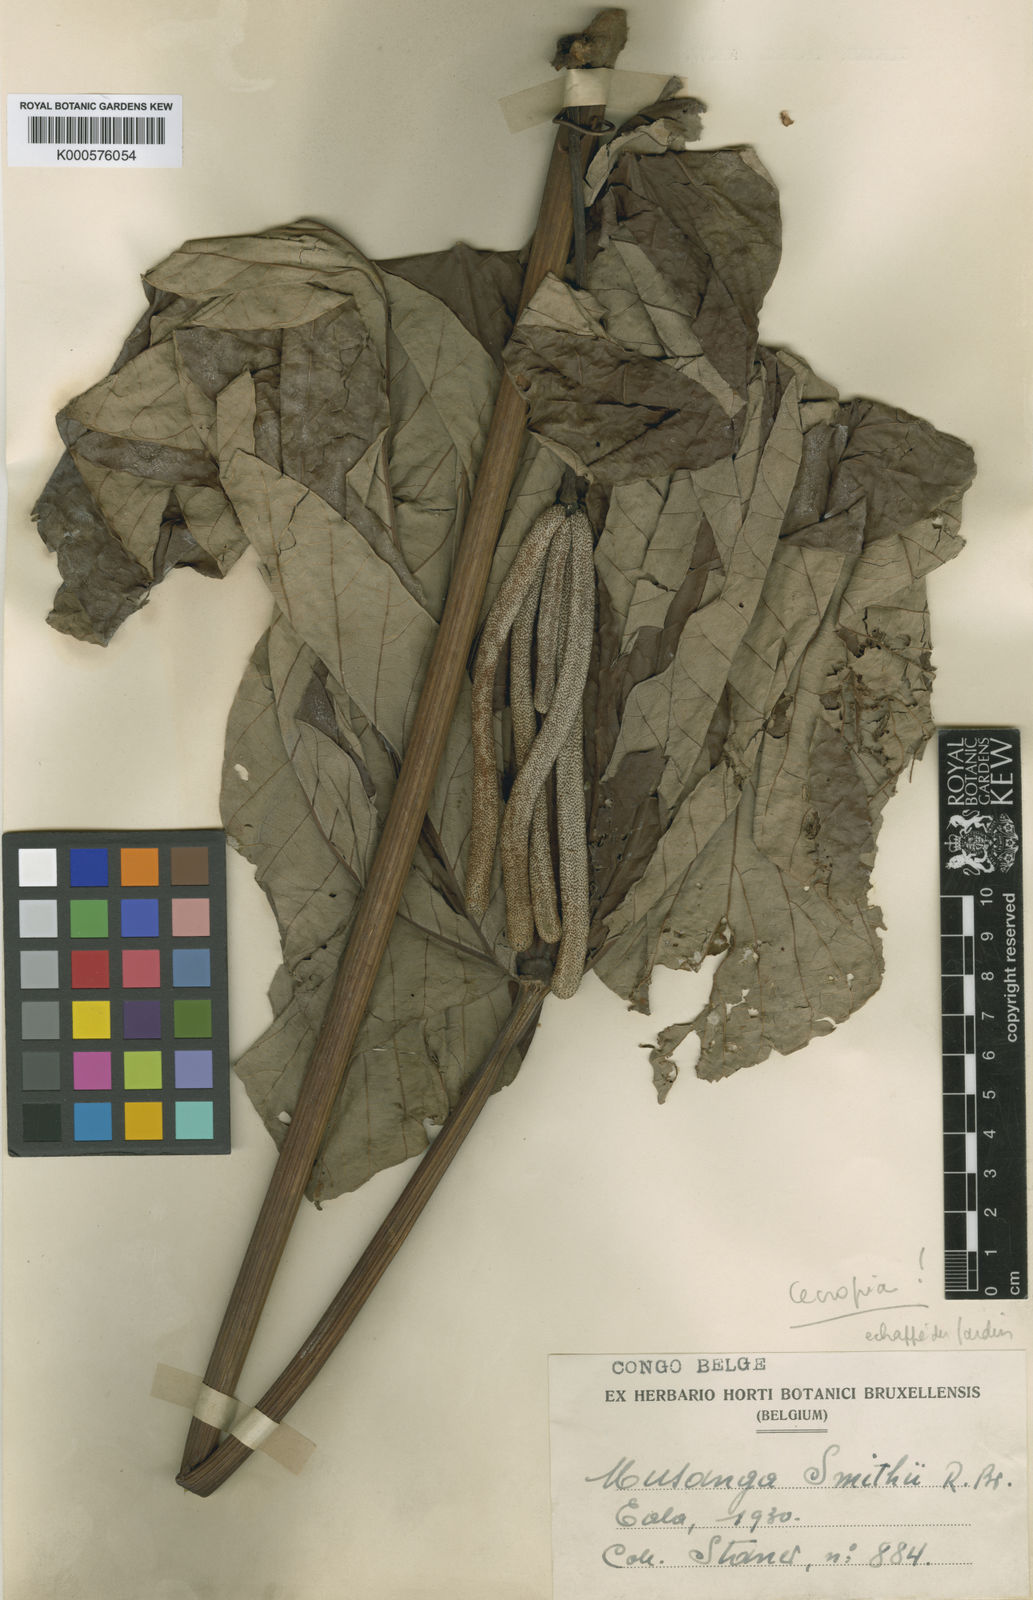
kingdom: Plantae
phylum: Tracheophyta
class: Magnoliopsida
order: Rosales
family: Urticaceae
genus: Cecropia
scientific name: Cecropia
